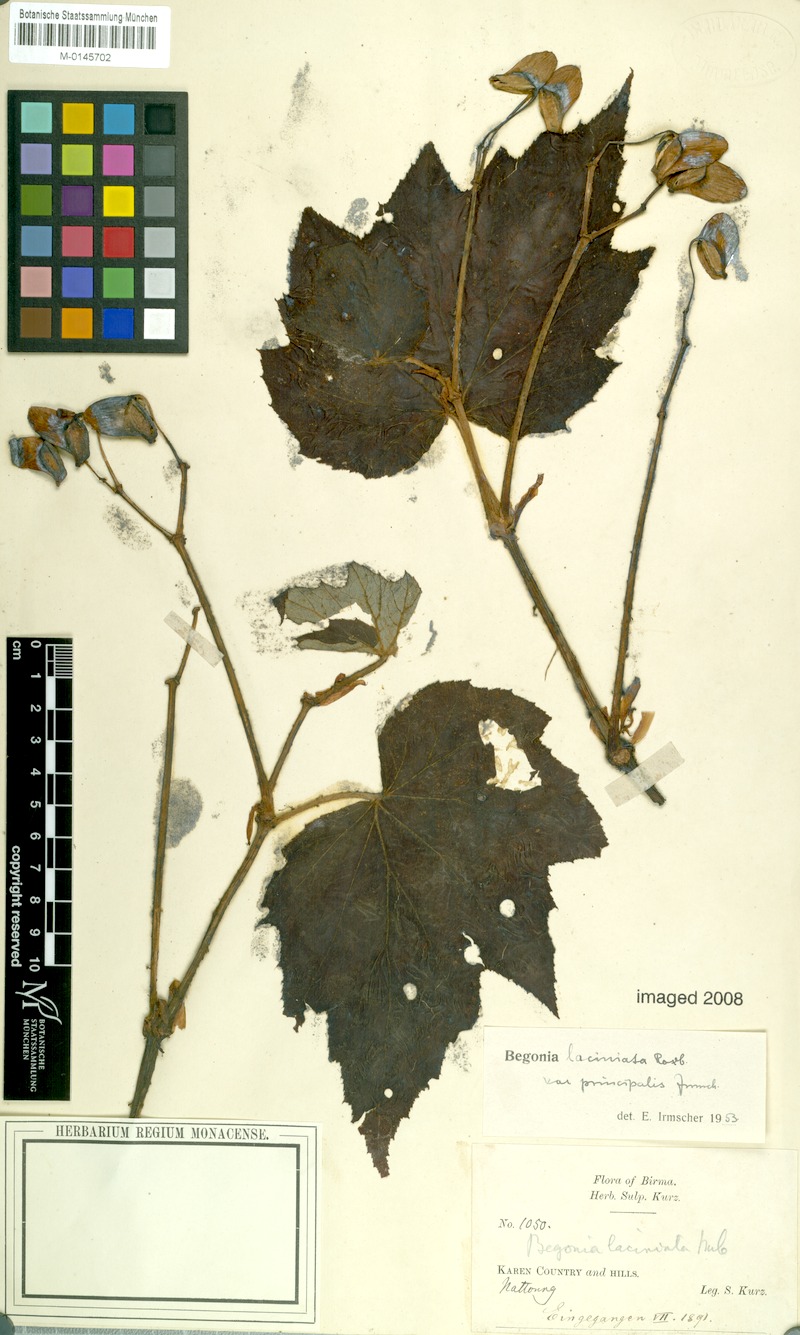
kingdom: Plantae
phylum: Tracheophyta
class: Magnoliopsida
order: Cucurbitales
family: Begoniaceae
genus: Begonia
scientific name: Begonia palmata
